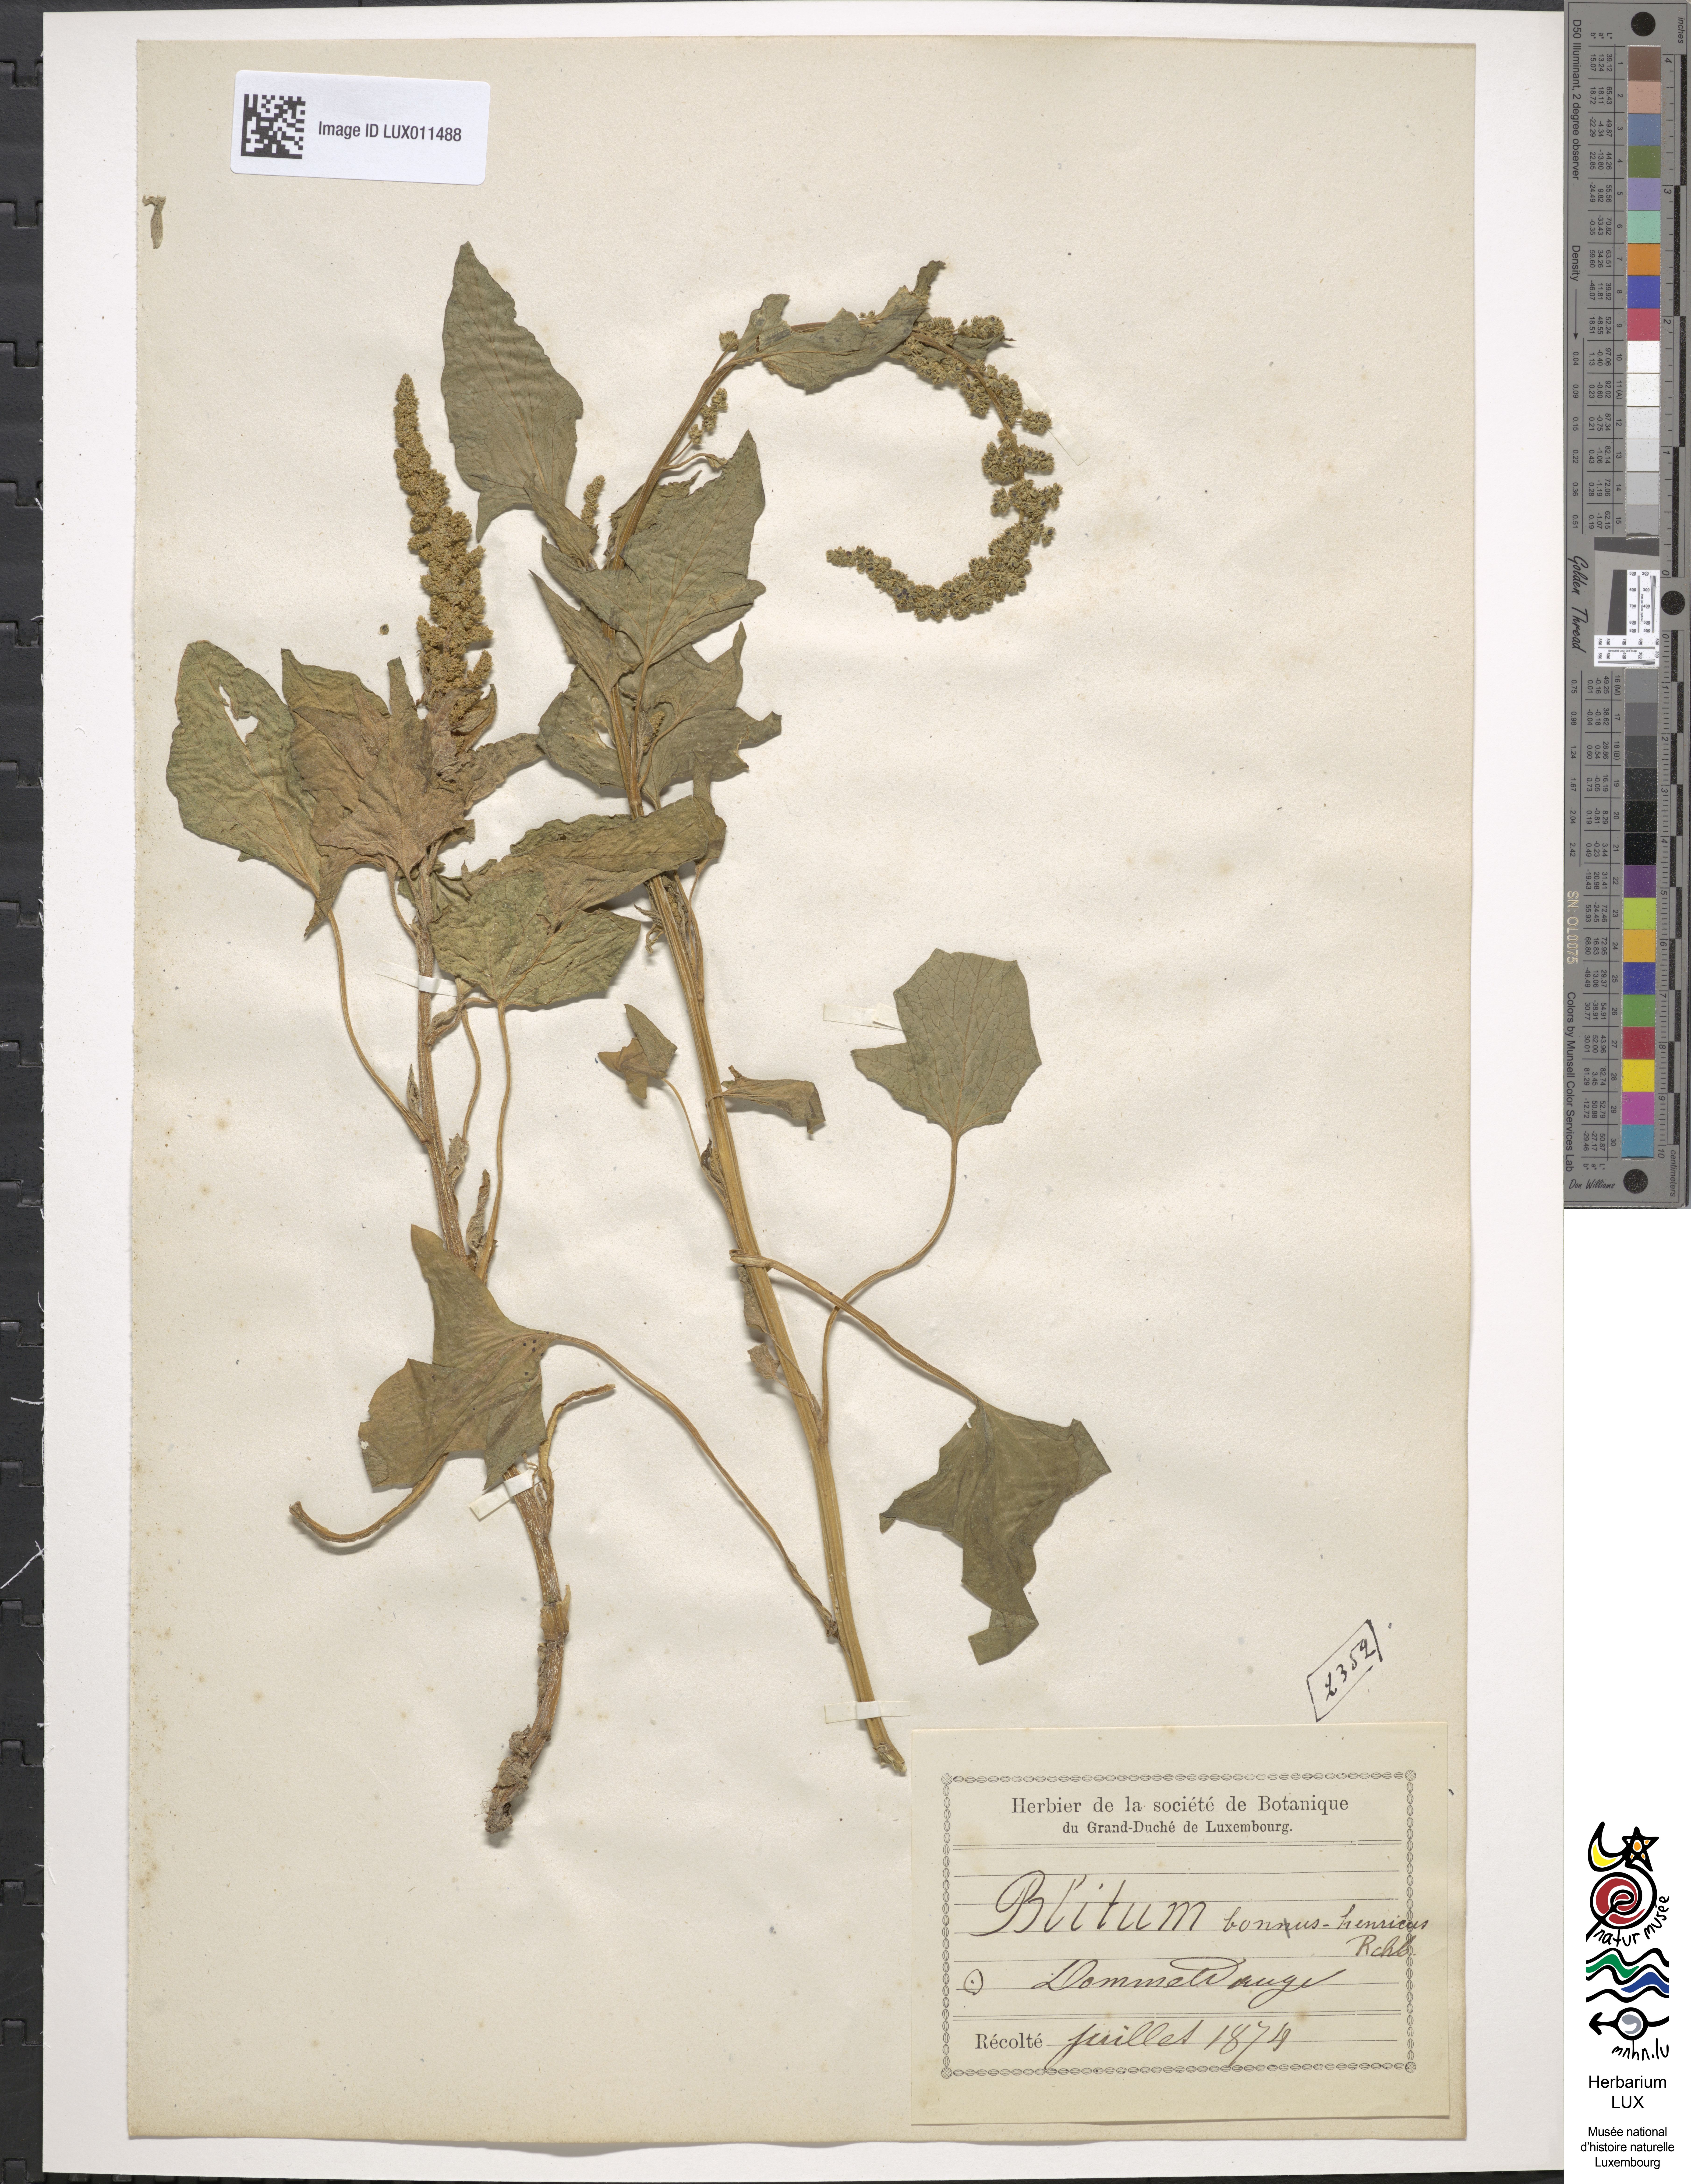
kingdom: Plantae
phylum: Tracheophyta
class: Magnoliopsida
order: Caryophyllales
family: Amaranthaceae
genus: Blitum
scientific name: Blitum bonus-henricus
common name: Good king henry
